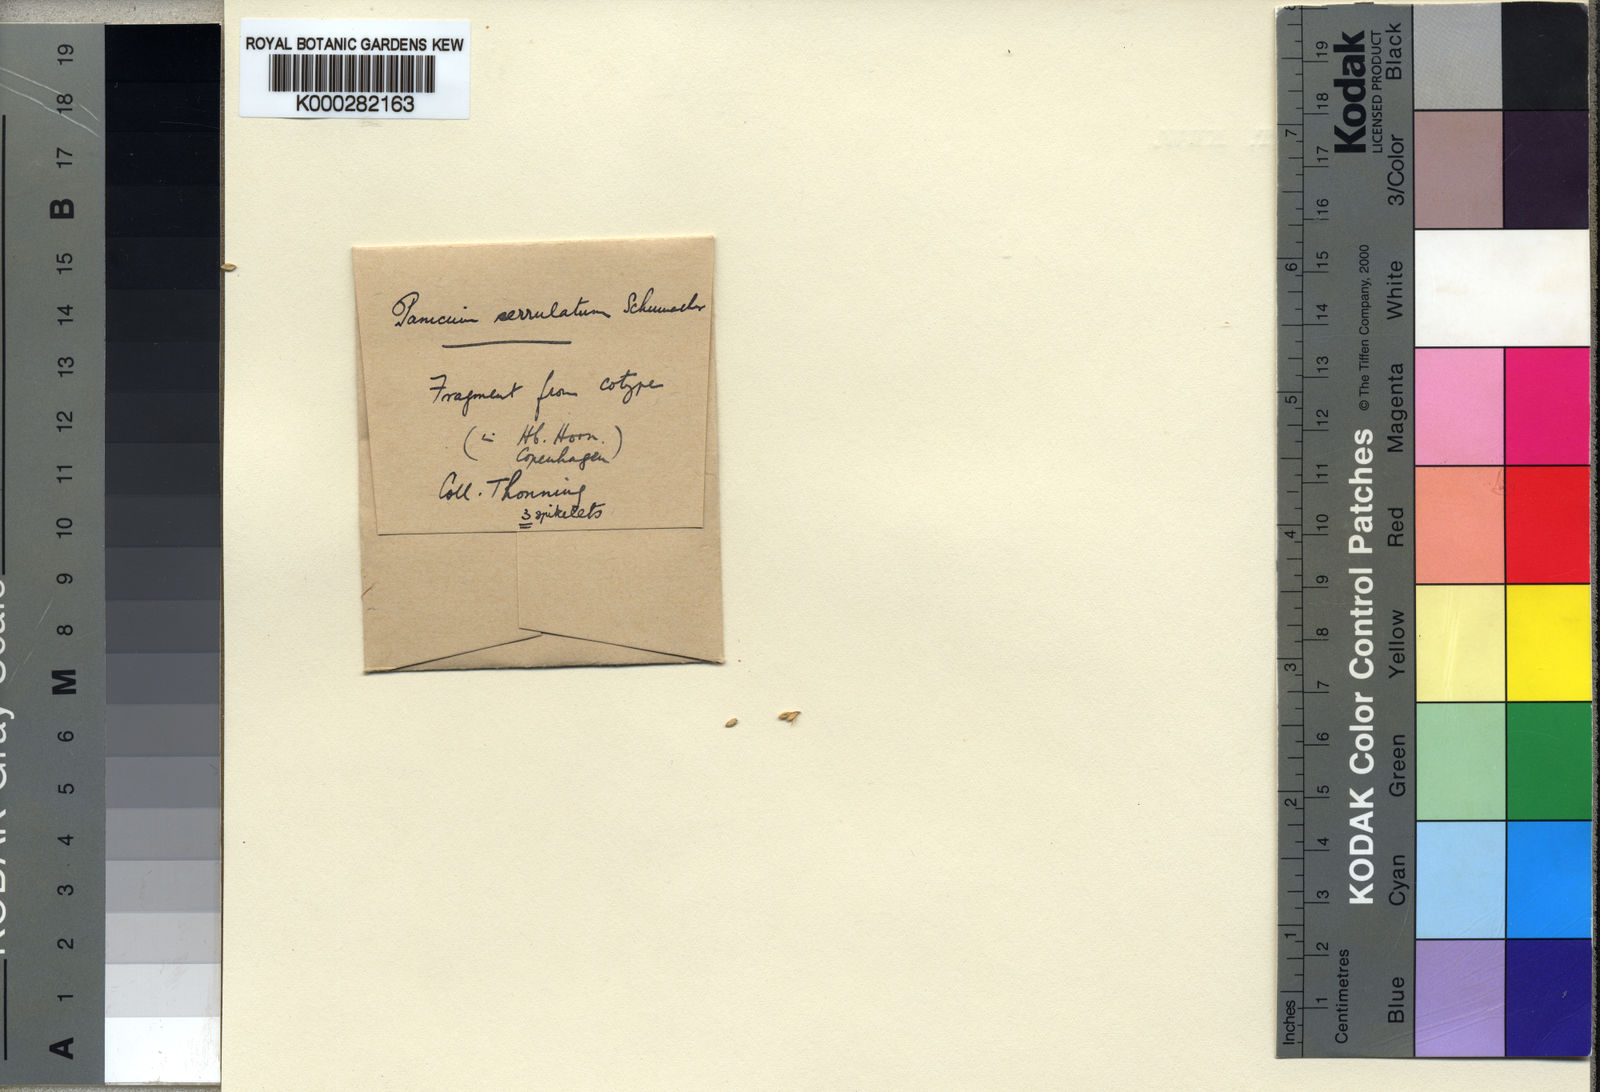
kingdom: Plantae
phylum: Tracheophyta
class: Liliopsida
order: Poales
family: Poaceae
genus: Urochloa
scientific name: Urochloa villosa
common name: Hairy signalgrass
